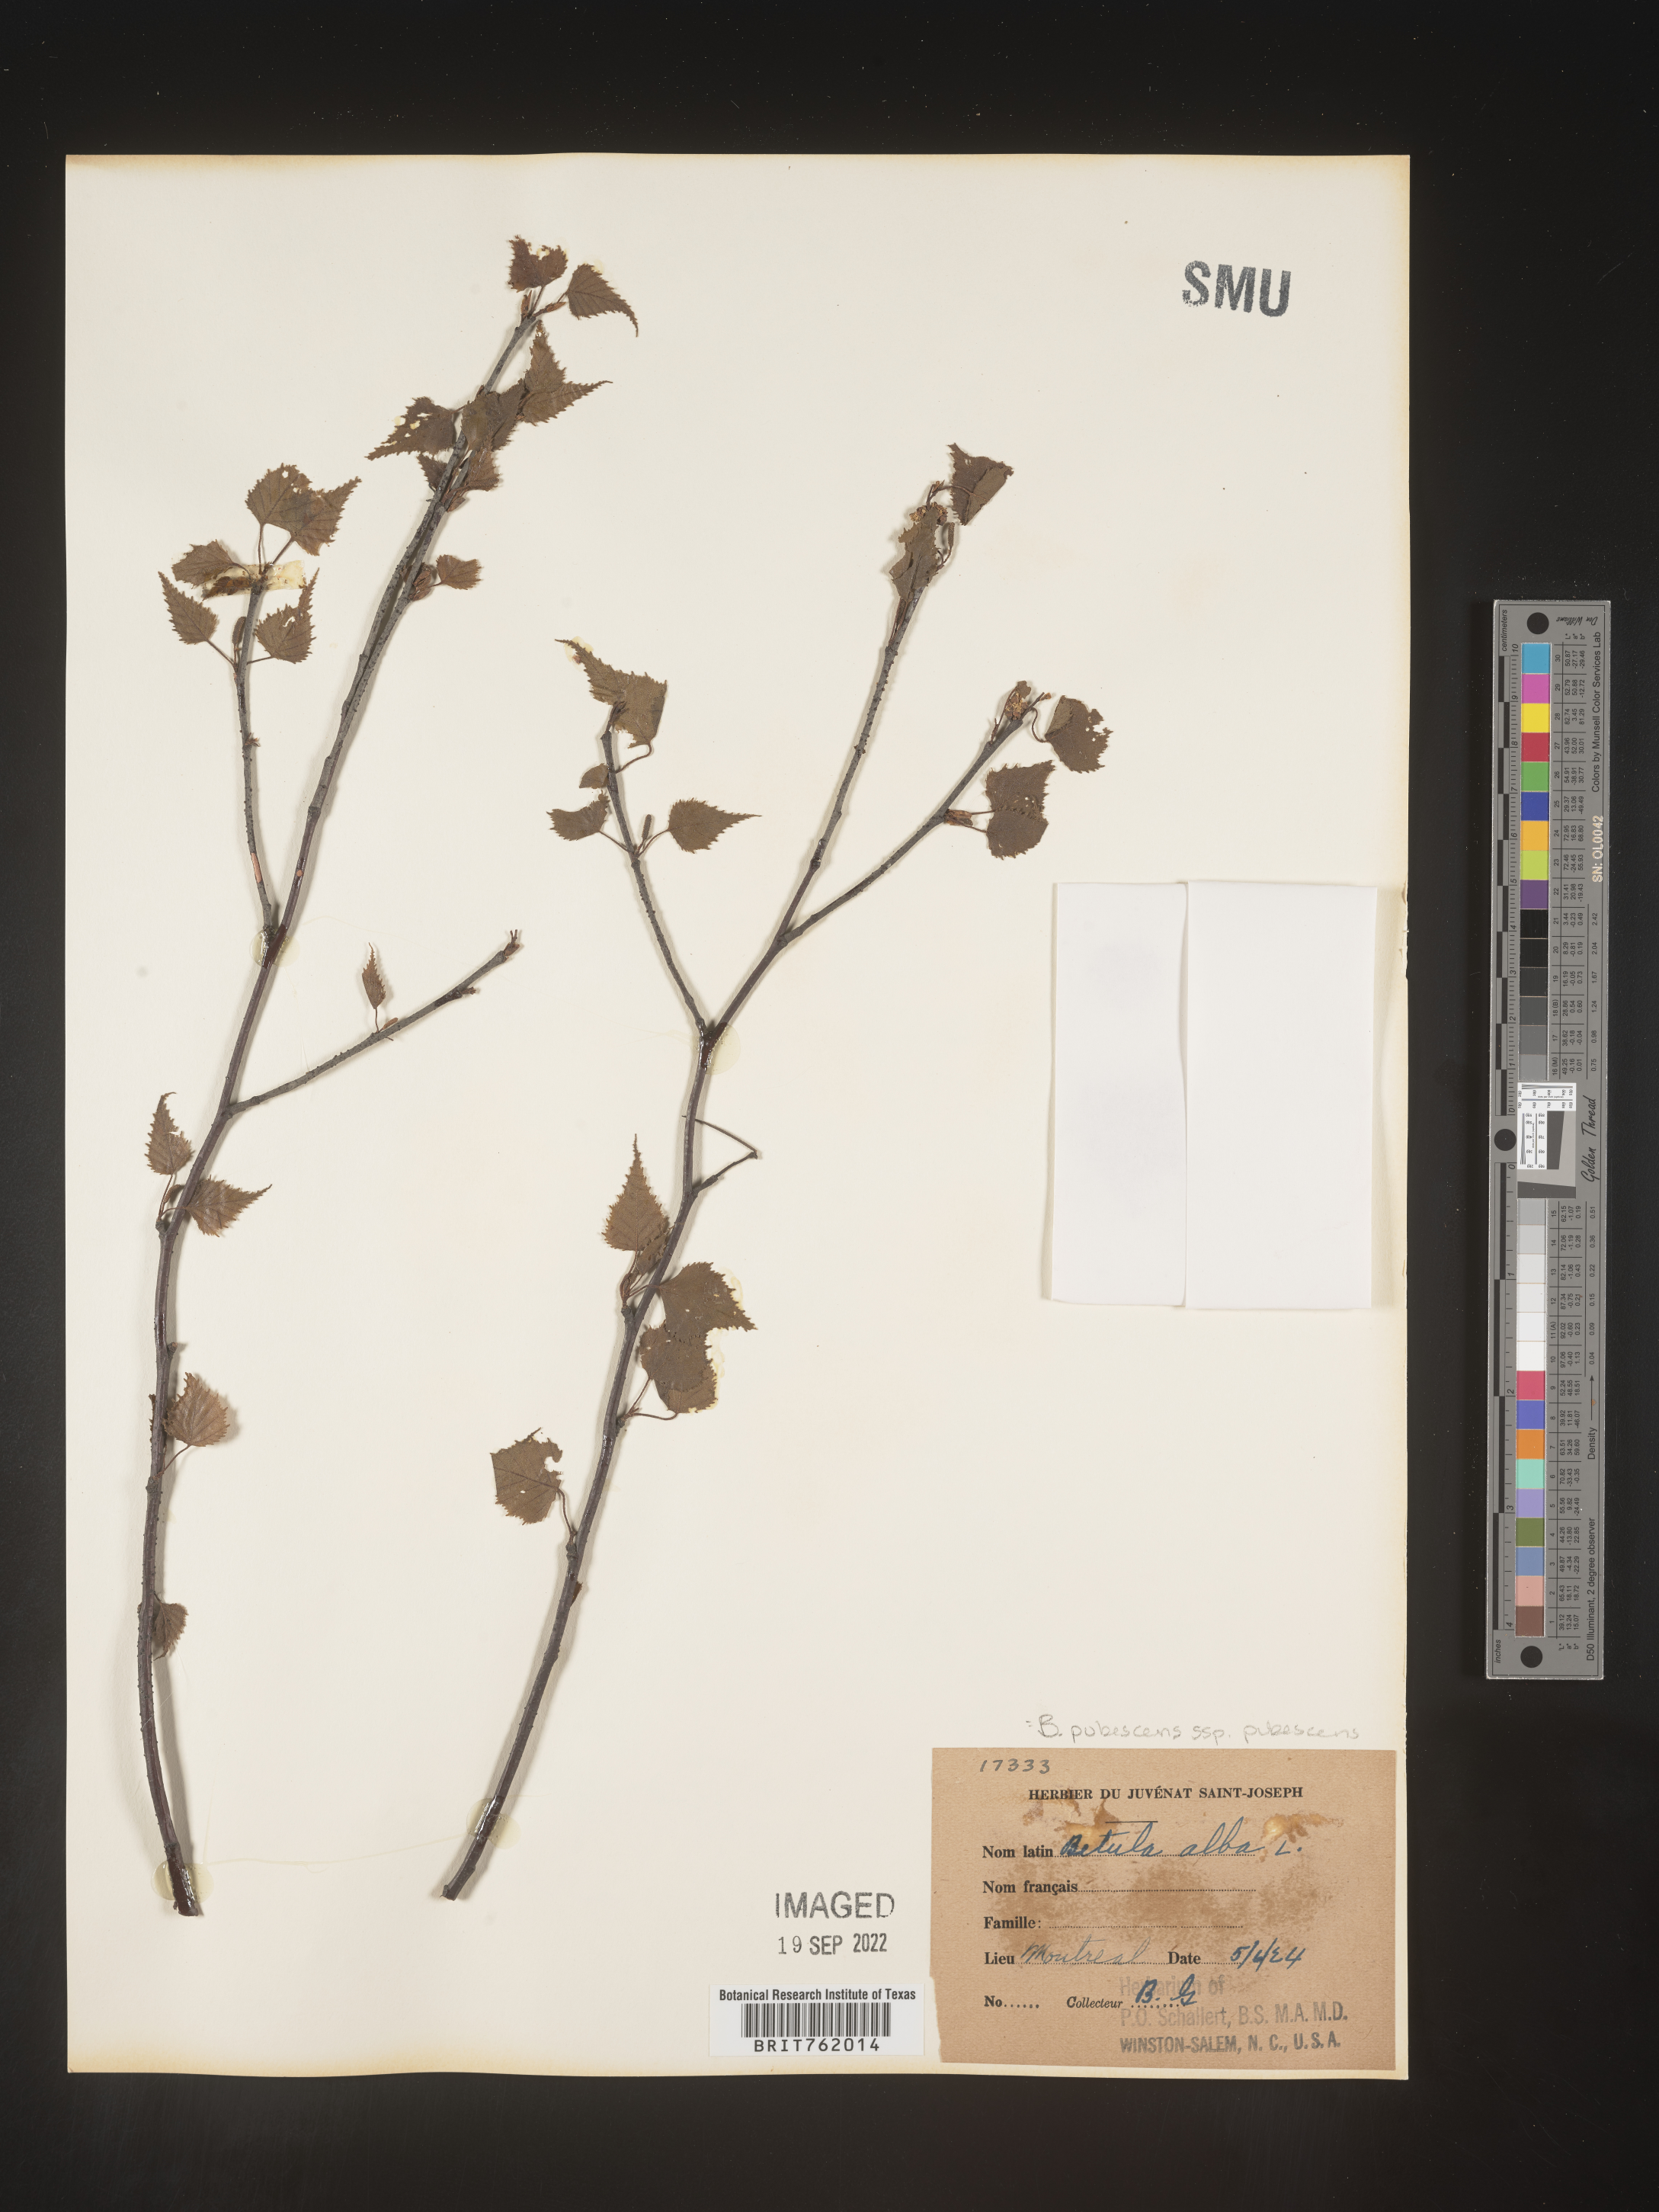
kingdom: Plantae
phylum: Tracheophyta
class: Magnoliopsida
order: Fagales
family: Betulaceae
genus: Betula
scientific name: Betula
